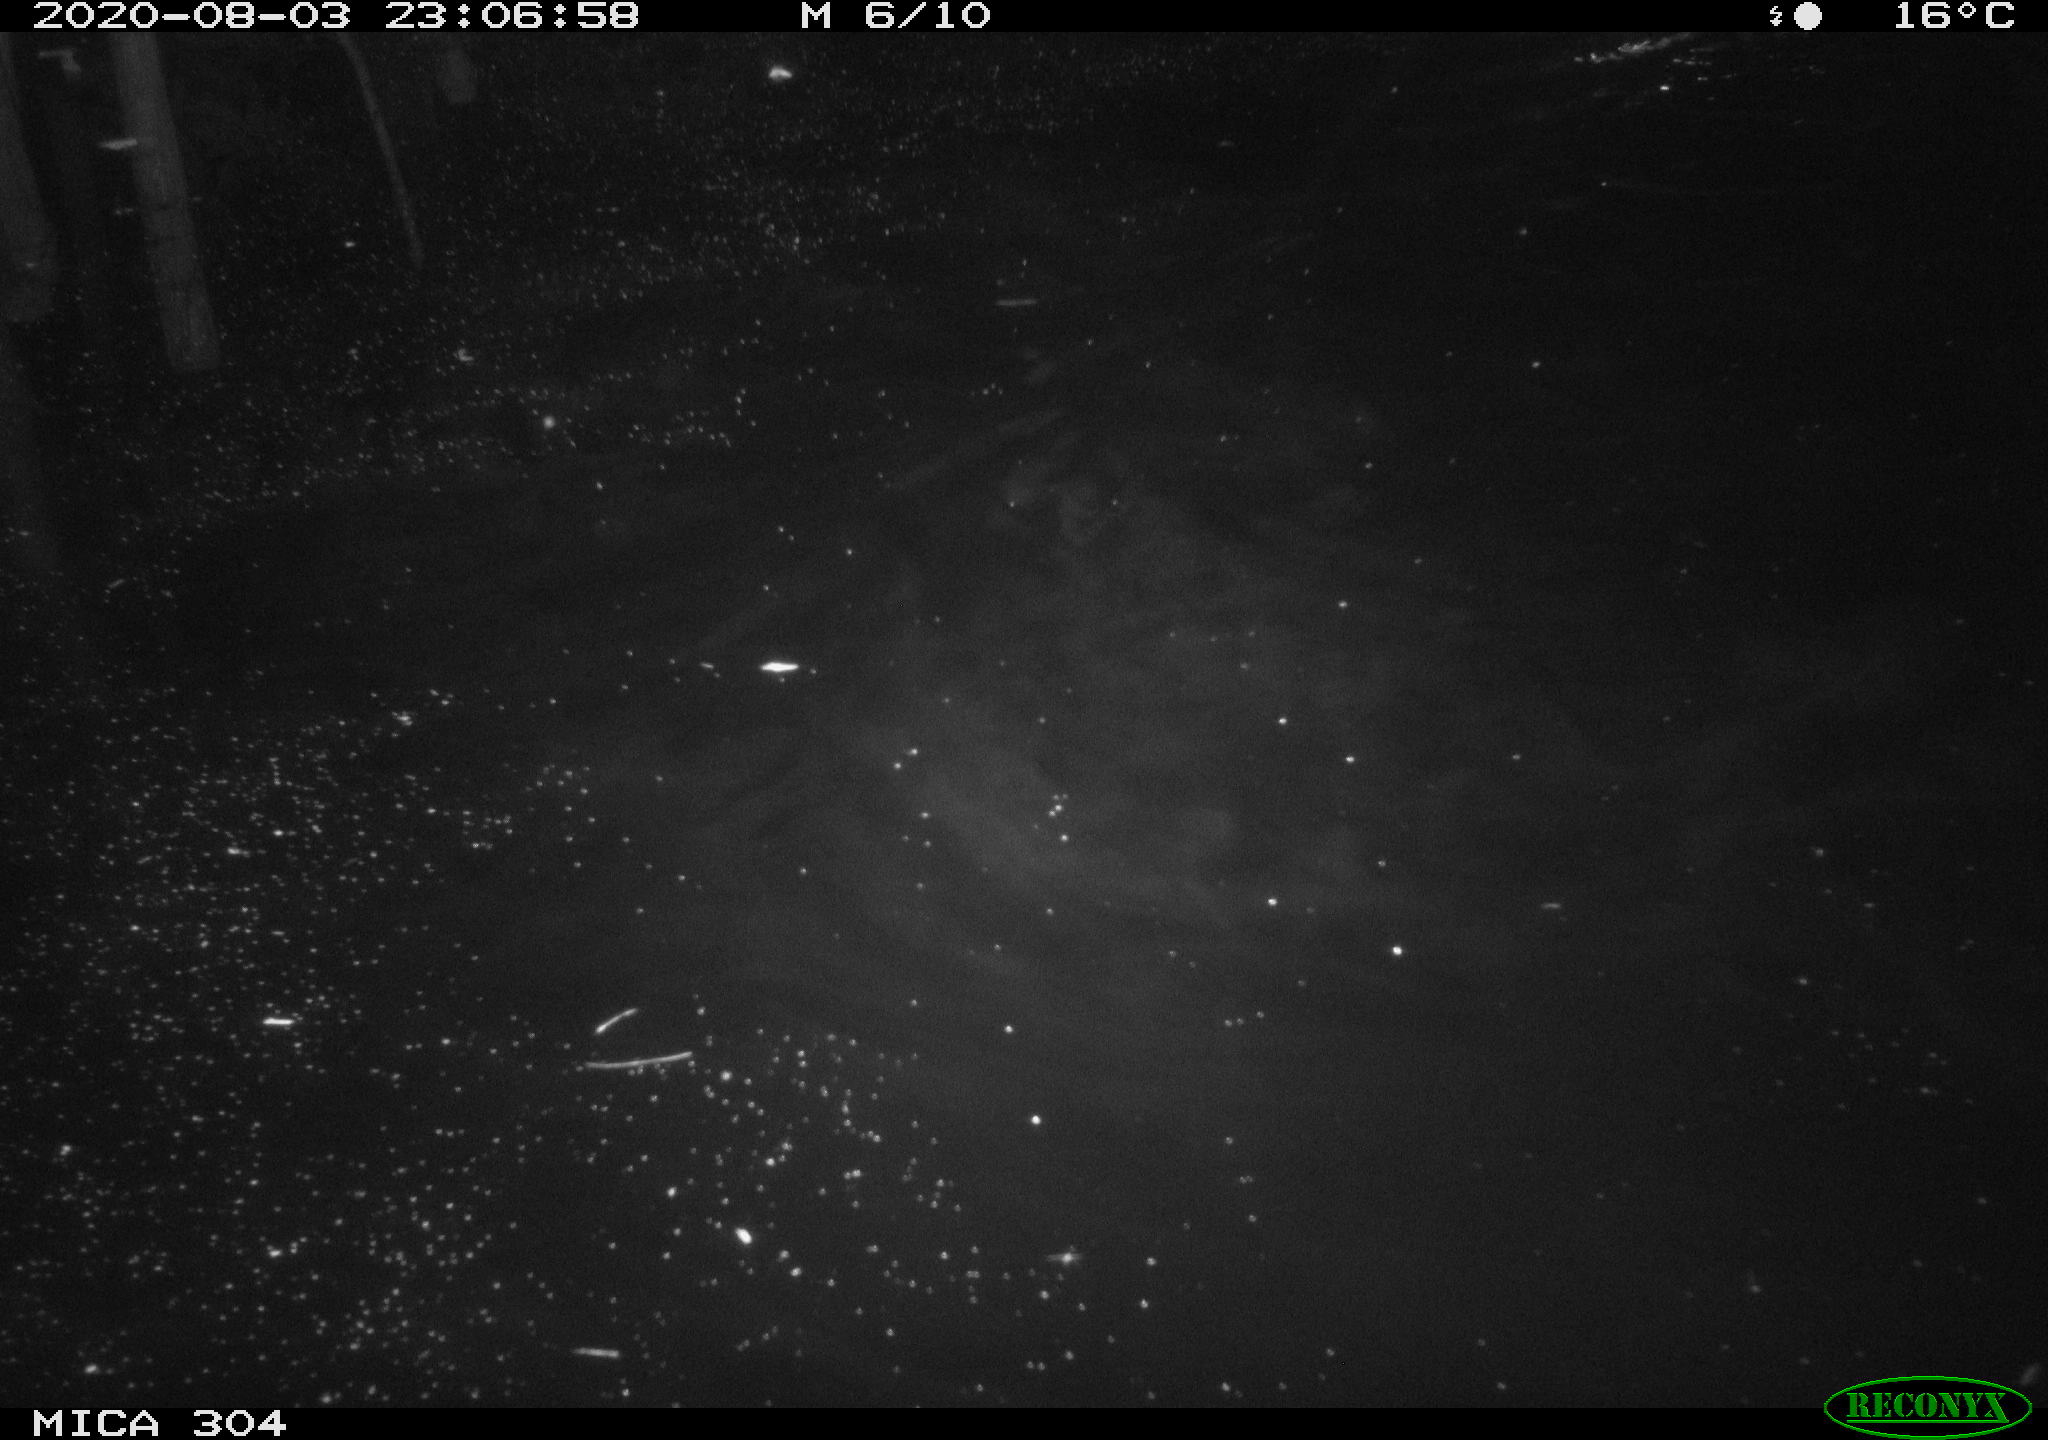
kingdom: Animalia
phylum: Chordata
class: Mammalia
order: Rodentia
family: Cricetidae
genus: Ondatra
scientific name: Ondatra zibethicus
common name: Muskrat
